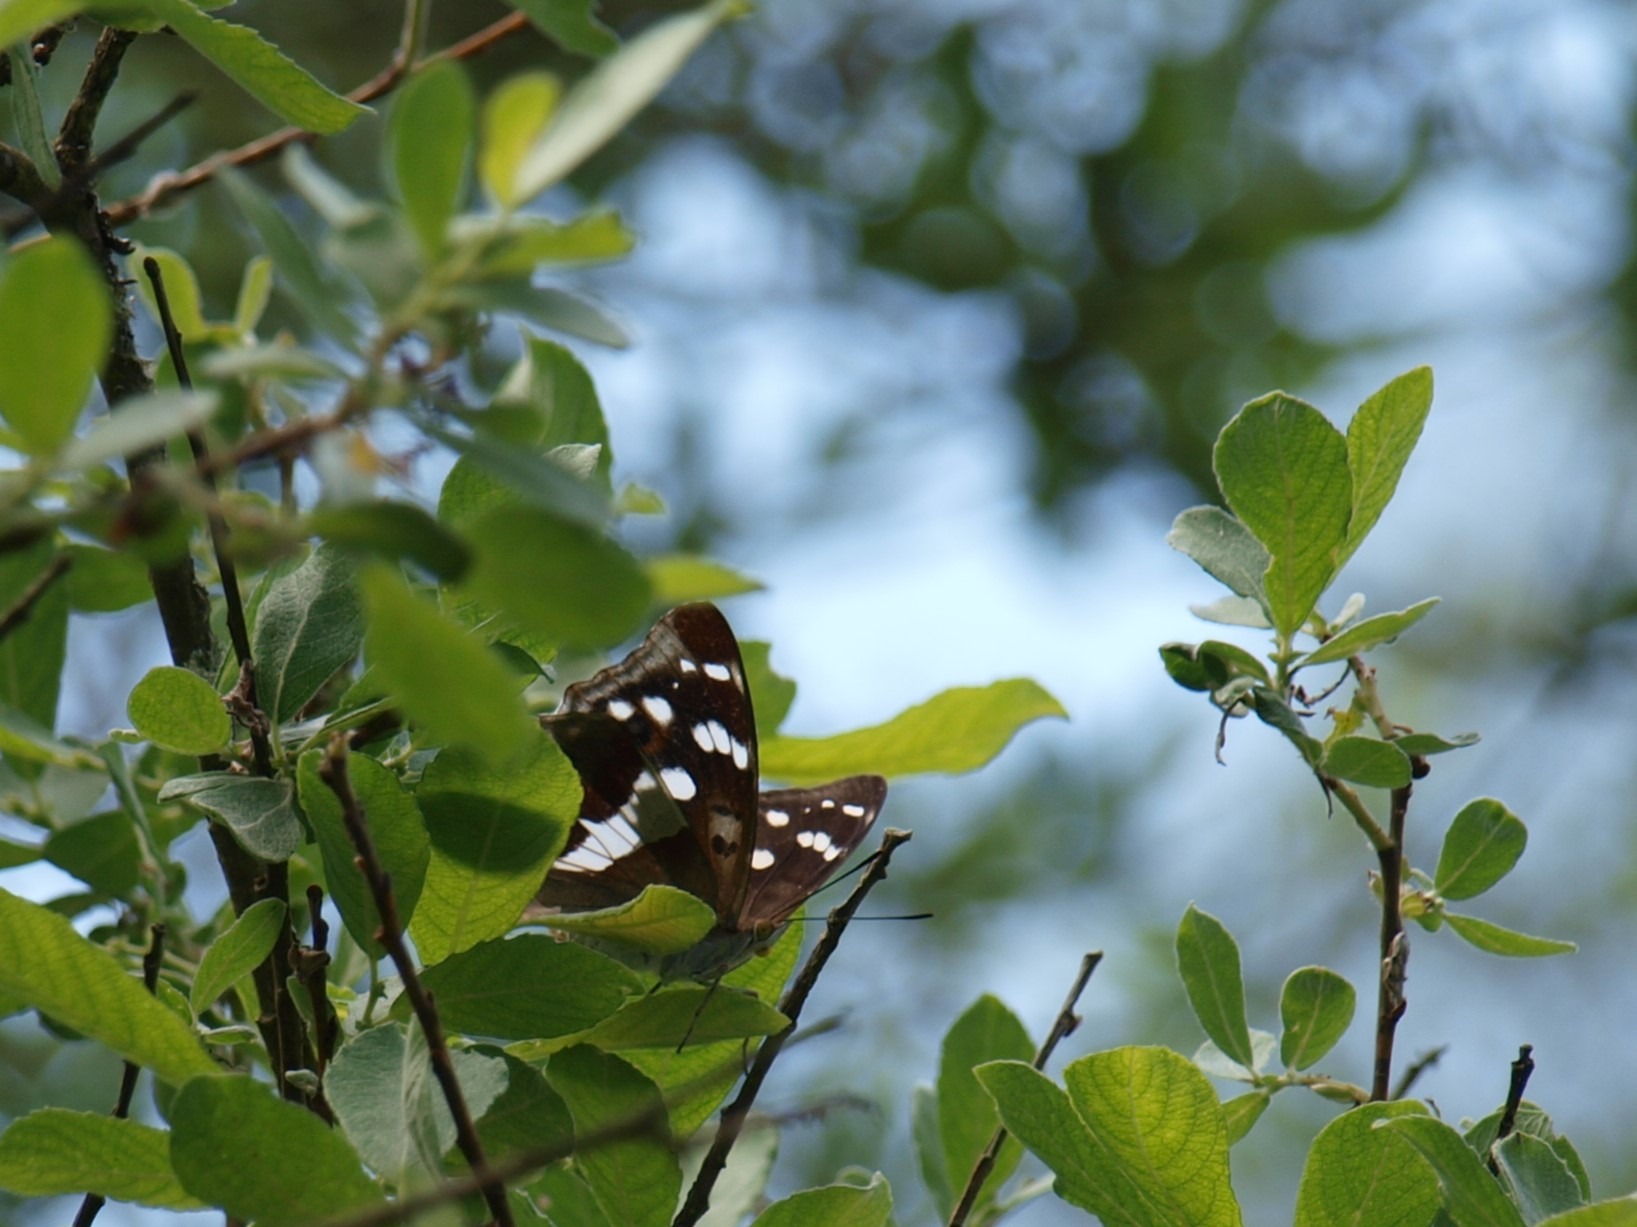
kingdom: Animalia
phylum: Arthropoda
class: Insecta
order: Lepidoptera
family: Nymphalidae
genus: Apatura
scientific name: Apatura iris
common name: Iris
